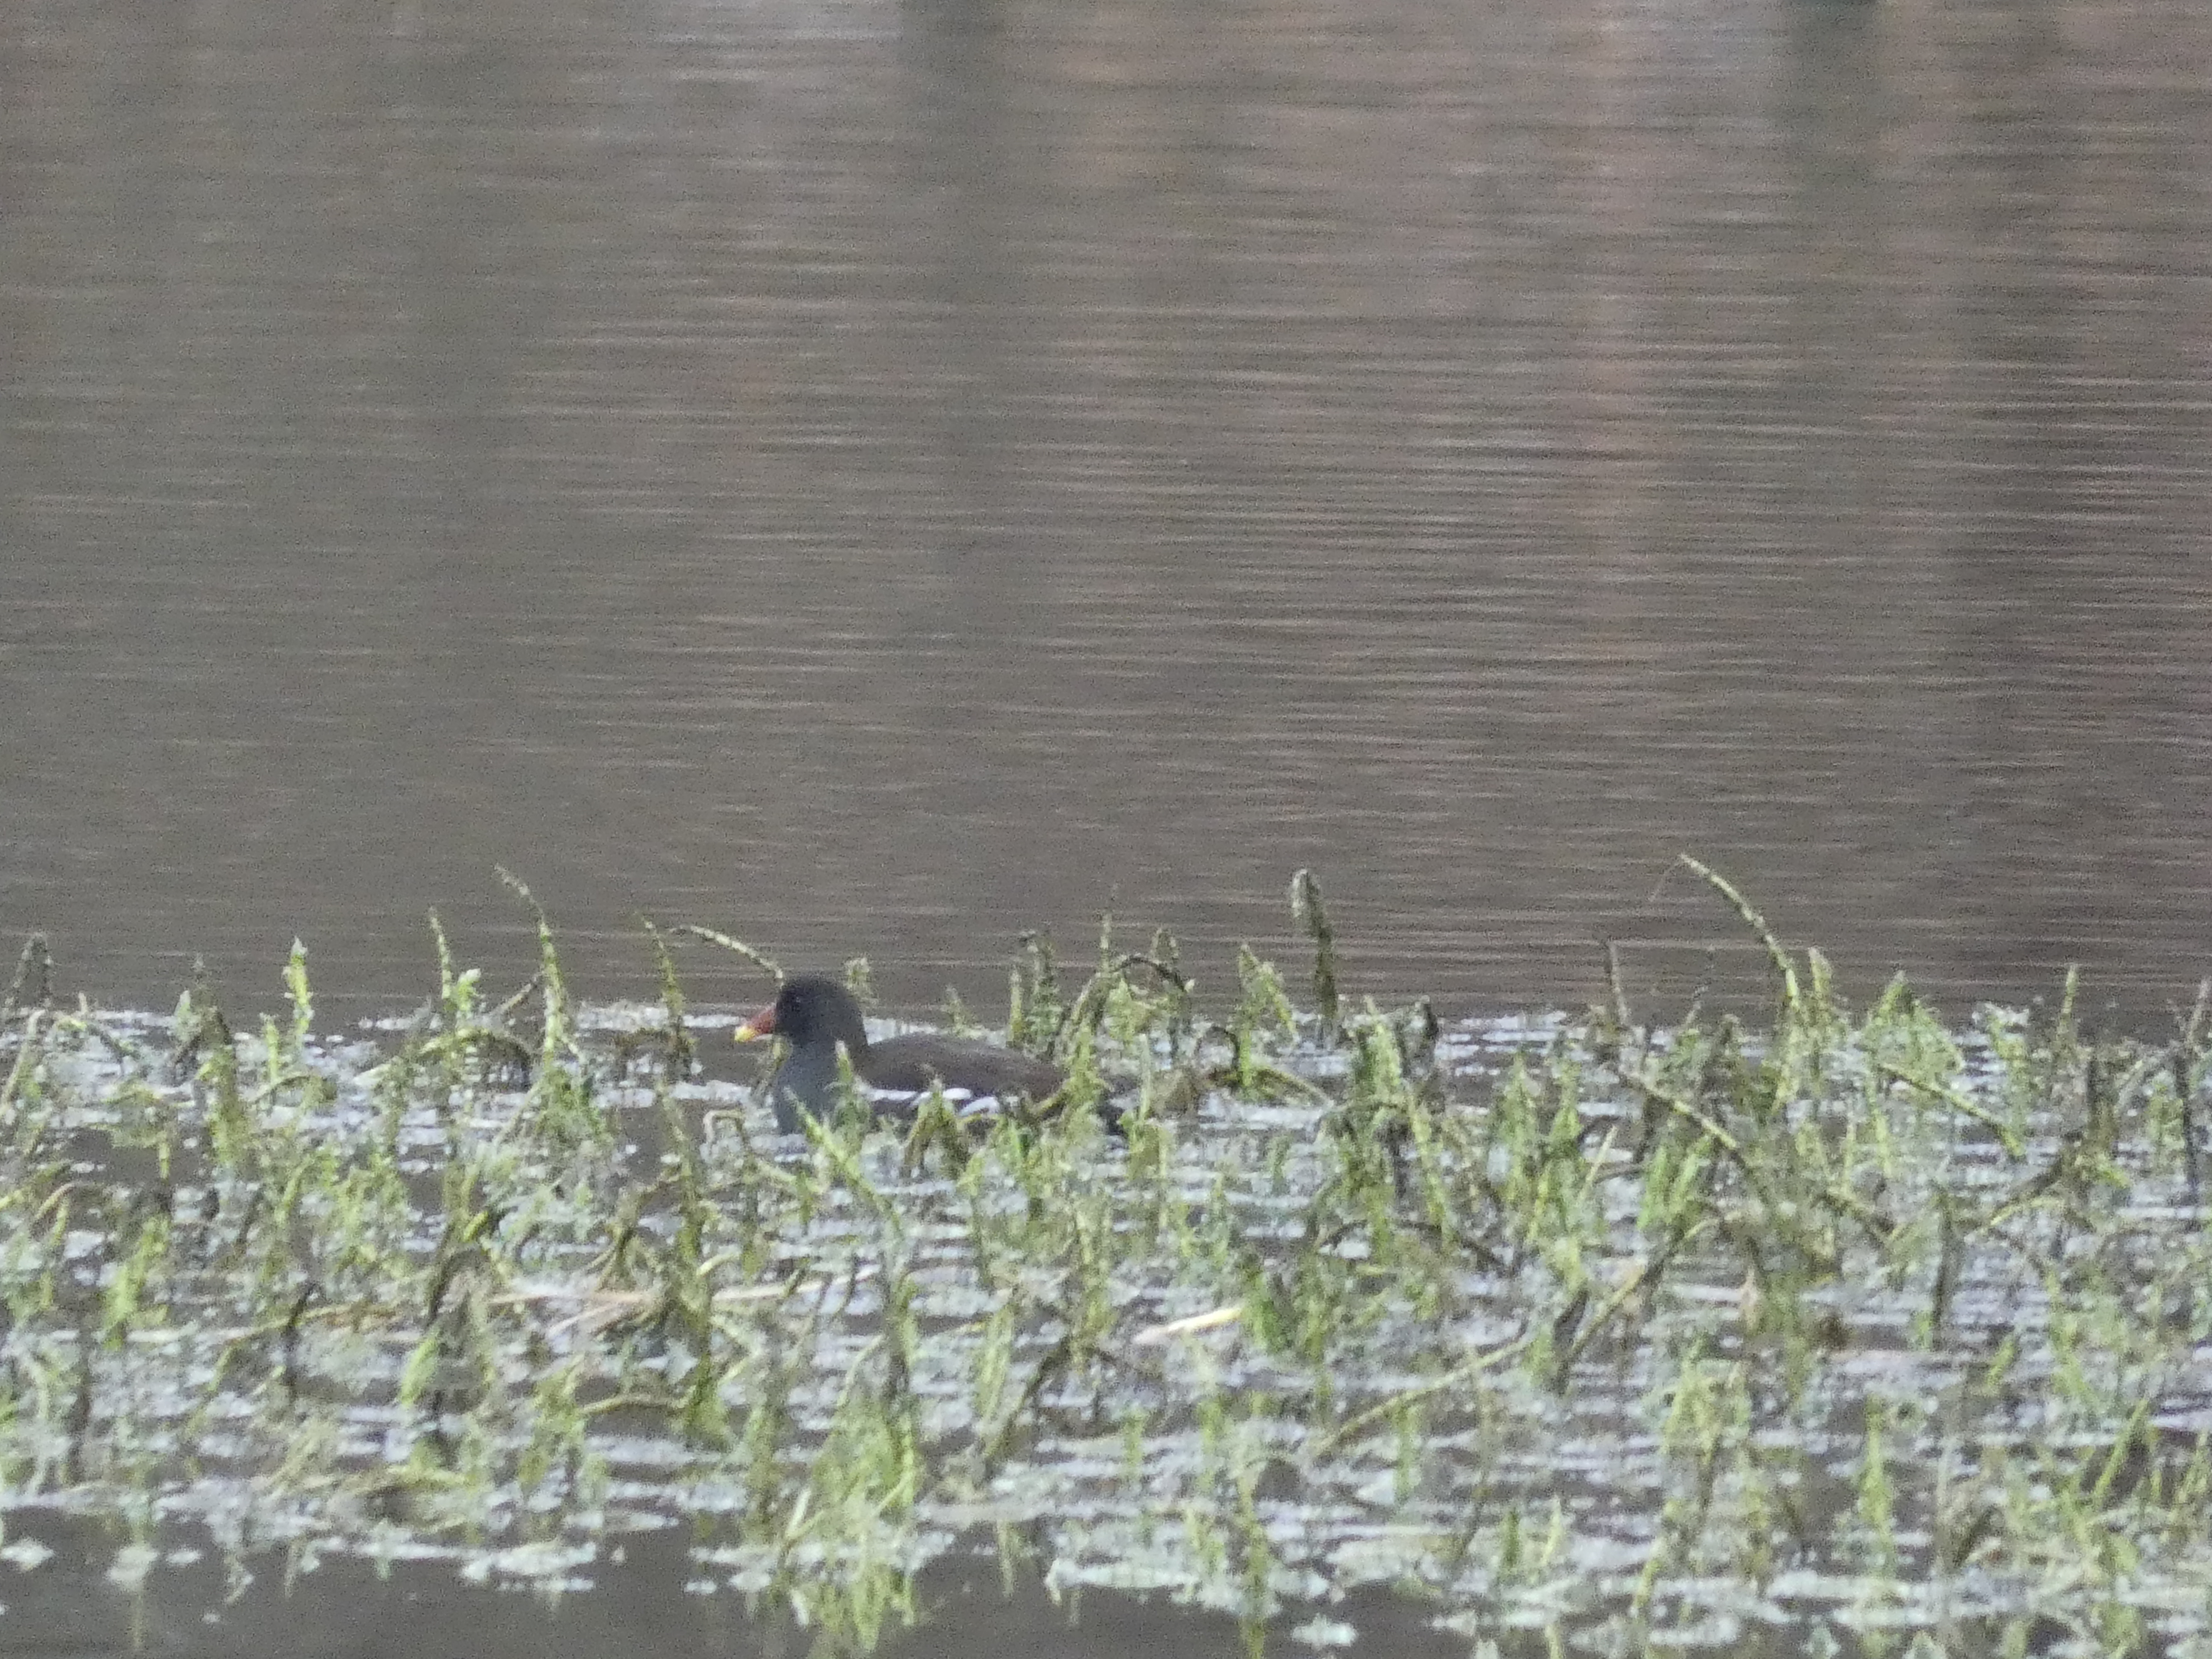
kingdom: Animalia
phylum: Chordata
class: Aves
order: Gruiformes
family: Rallidae
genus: Gallinula
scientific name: Gallinula chloropus
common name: Grønbenet rørhøne
